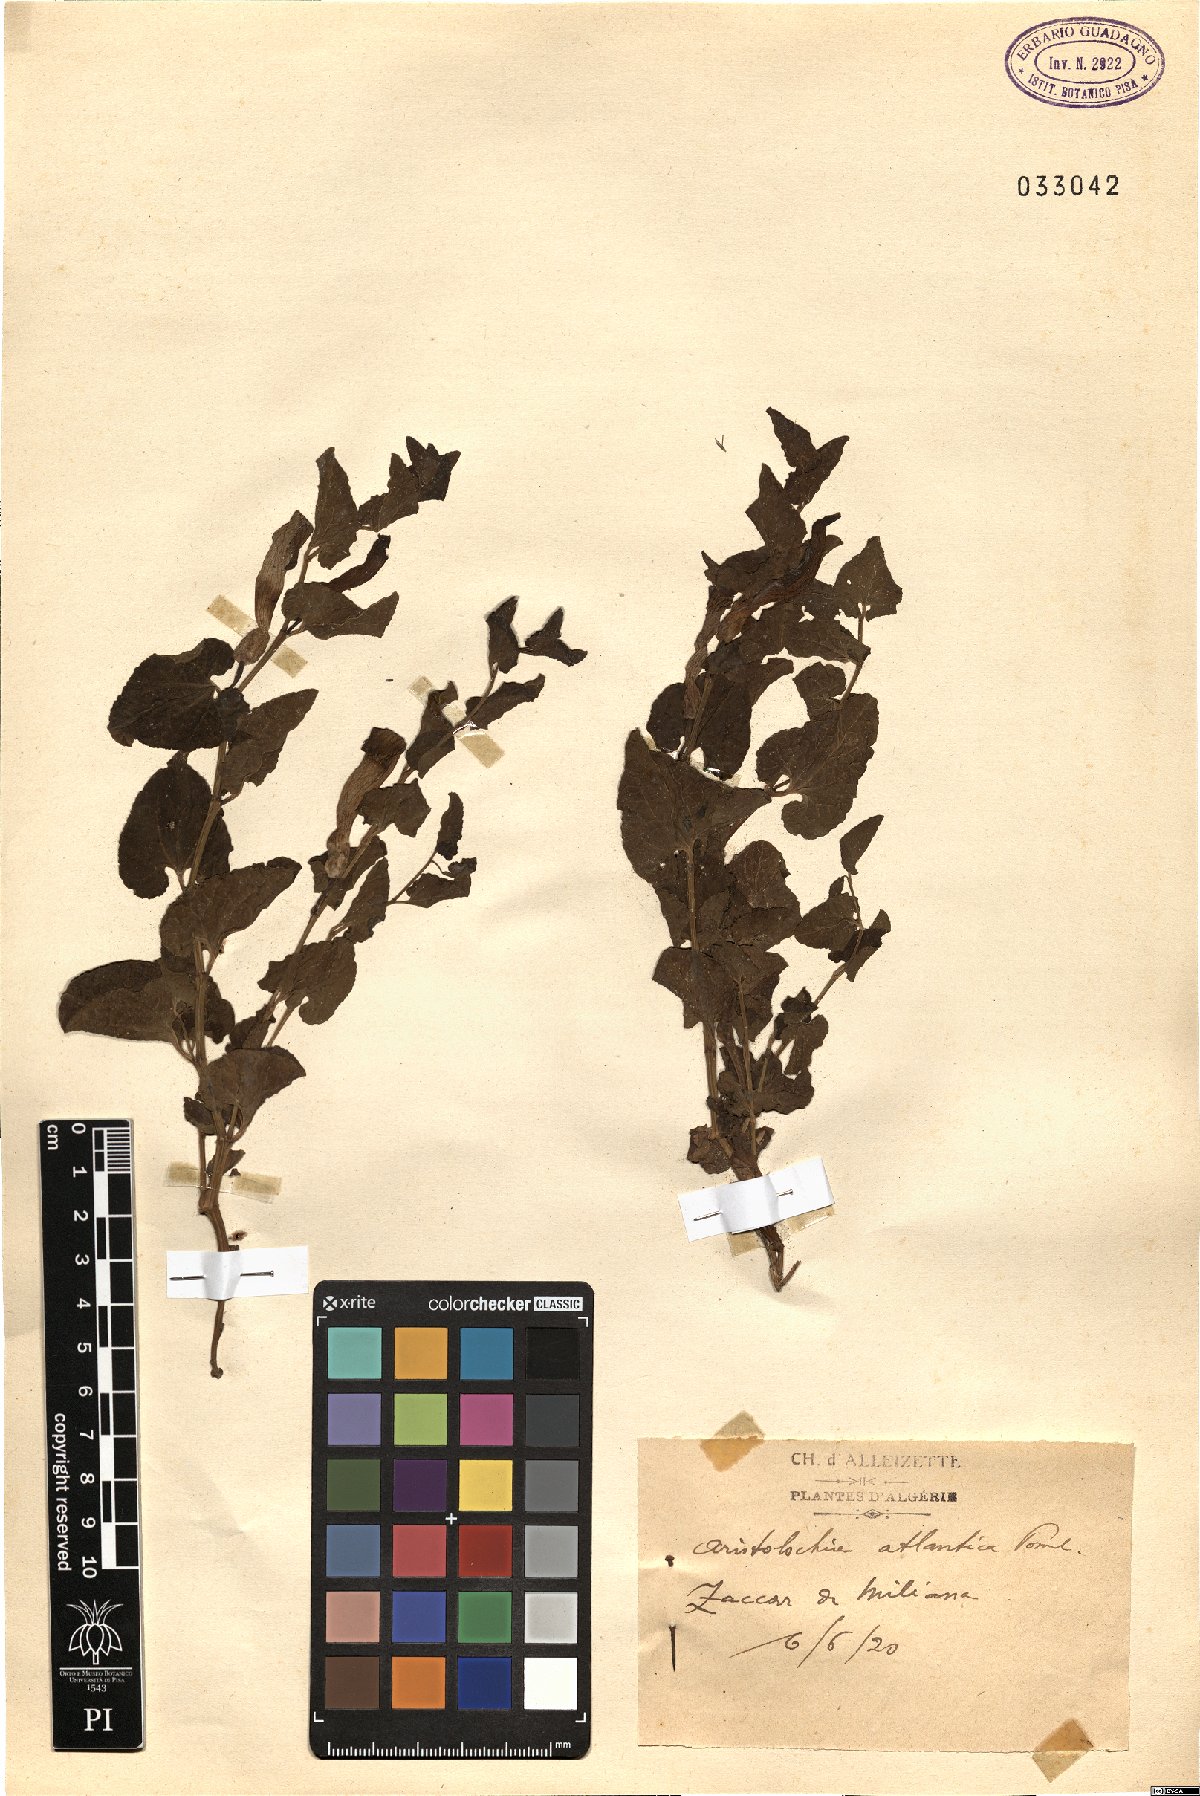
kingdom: Plantae
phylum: Tracheophyta
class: Magnoliopsida
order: Piperales
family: Aristolochiaceae
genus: Aristolochia
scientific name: Aristolochia fontanesii
